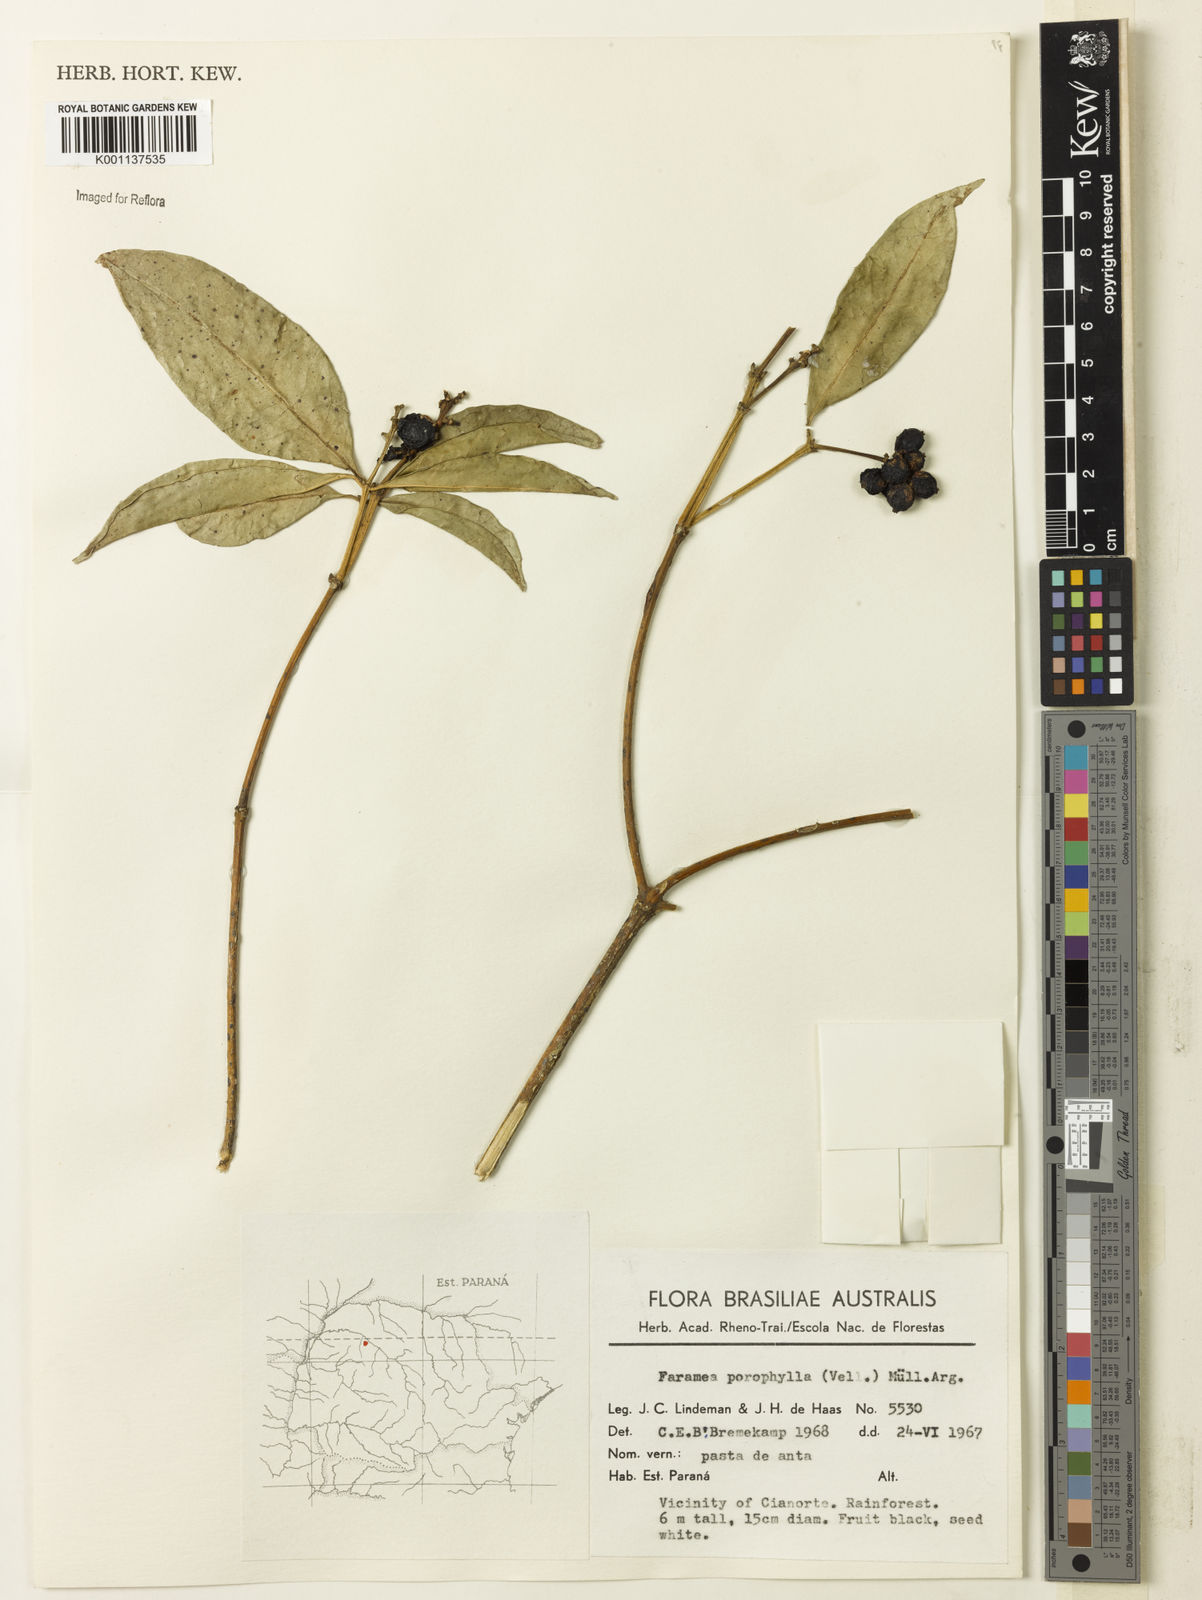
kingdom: Plantae
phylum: Tracheophyta
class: Magnoliopsida
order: Gentianales
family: Rubiaceae
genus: Coussarea
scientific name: Coussarea
